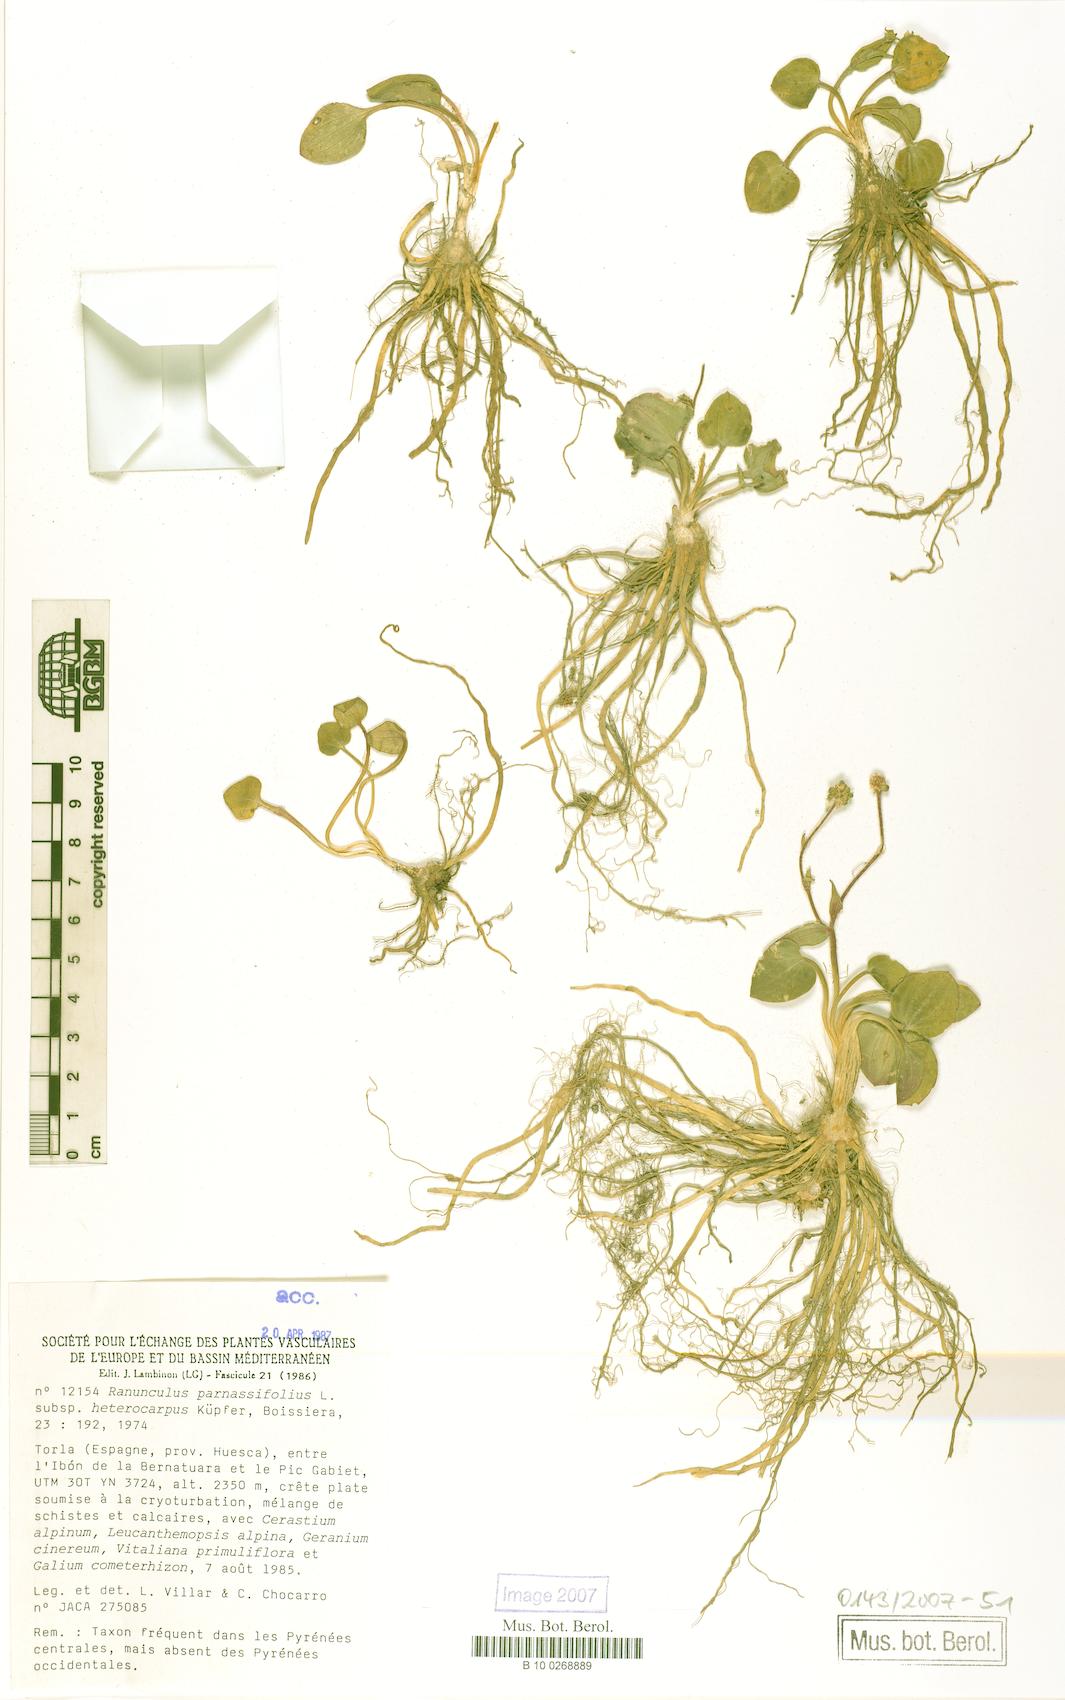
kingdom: Plantae
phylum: Tracheophyta
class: Magnoliopsida
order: Ranunculales
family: Ranunculaceae
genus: Ranunculus
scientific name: Ranunculus parnassiifolius
